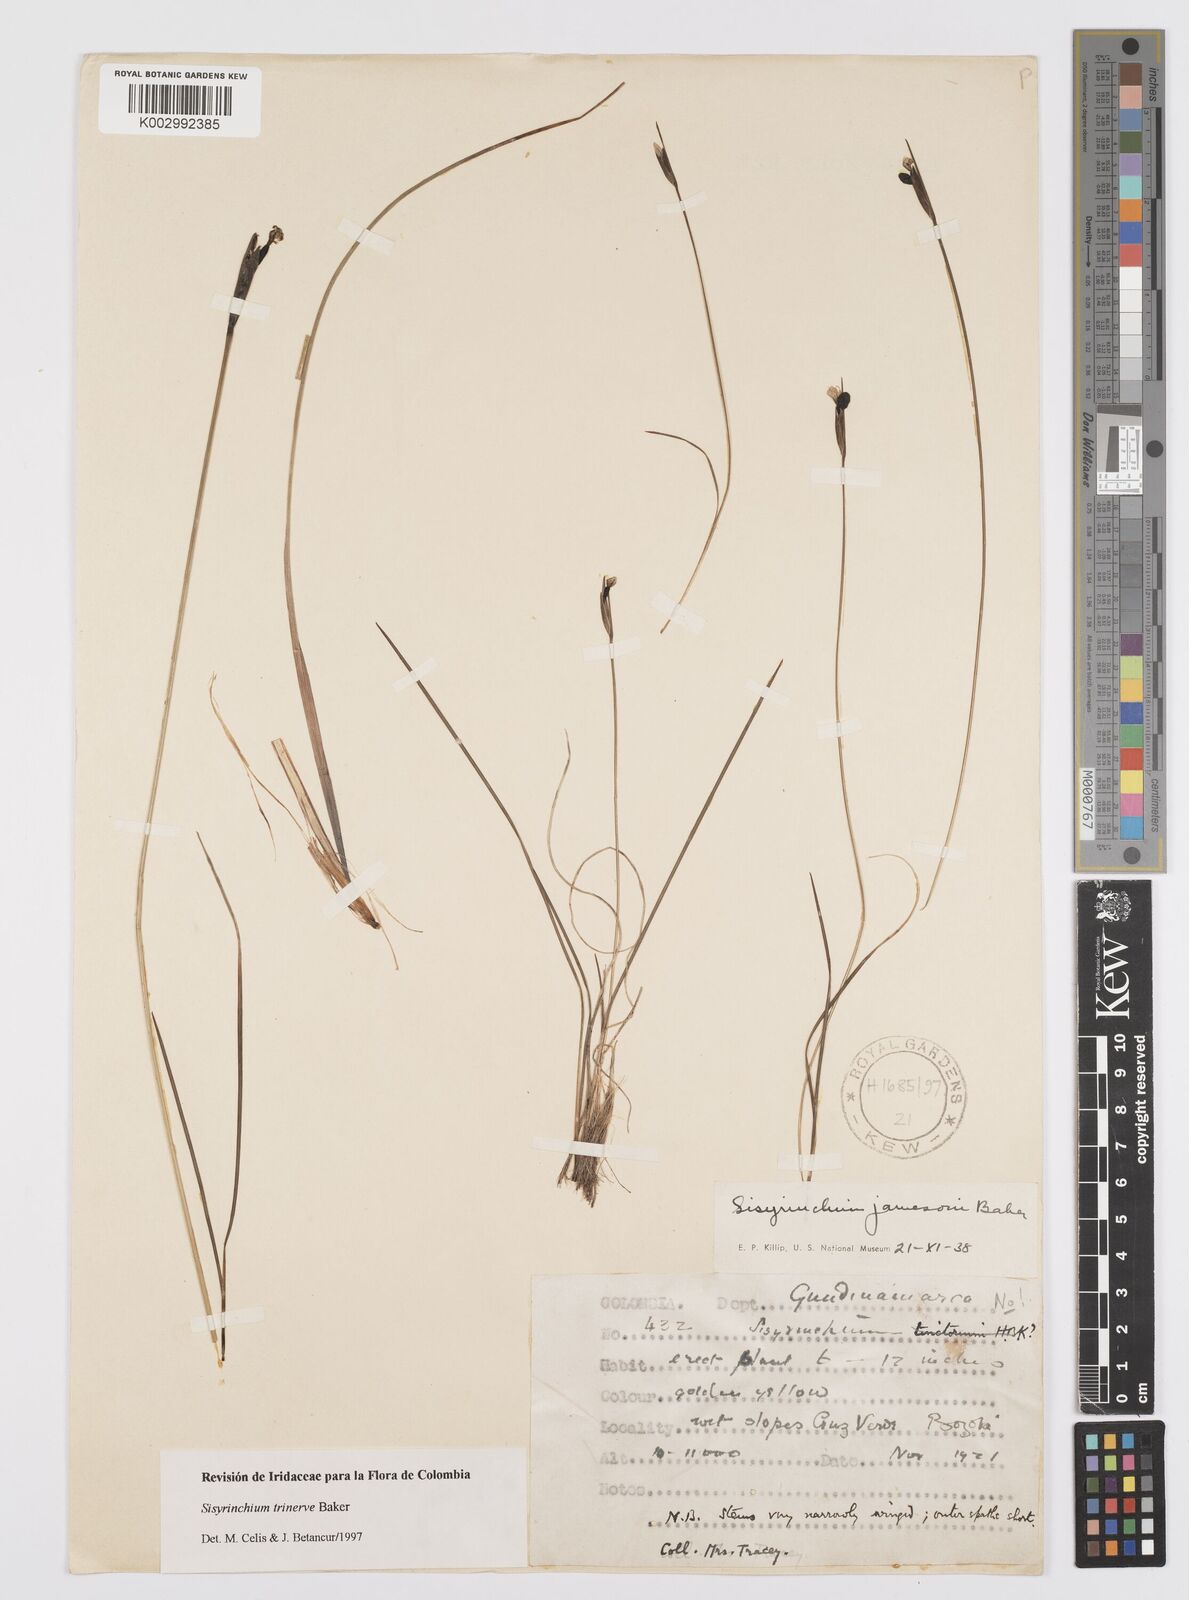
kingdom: Plantae
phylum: Tracheophyta
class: Liliopsida
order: Asparagales
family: Iridaceae
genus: Olsynium
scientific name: Olsynium trinerve
